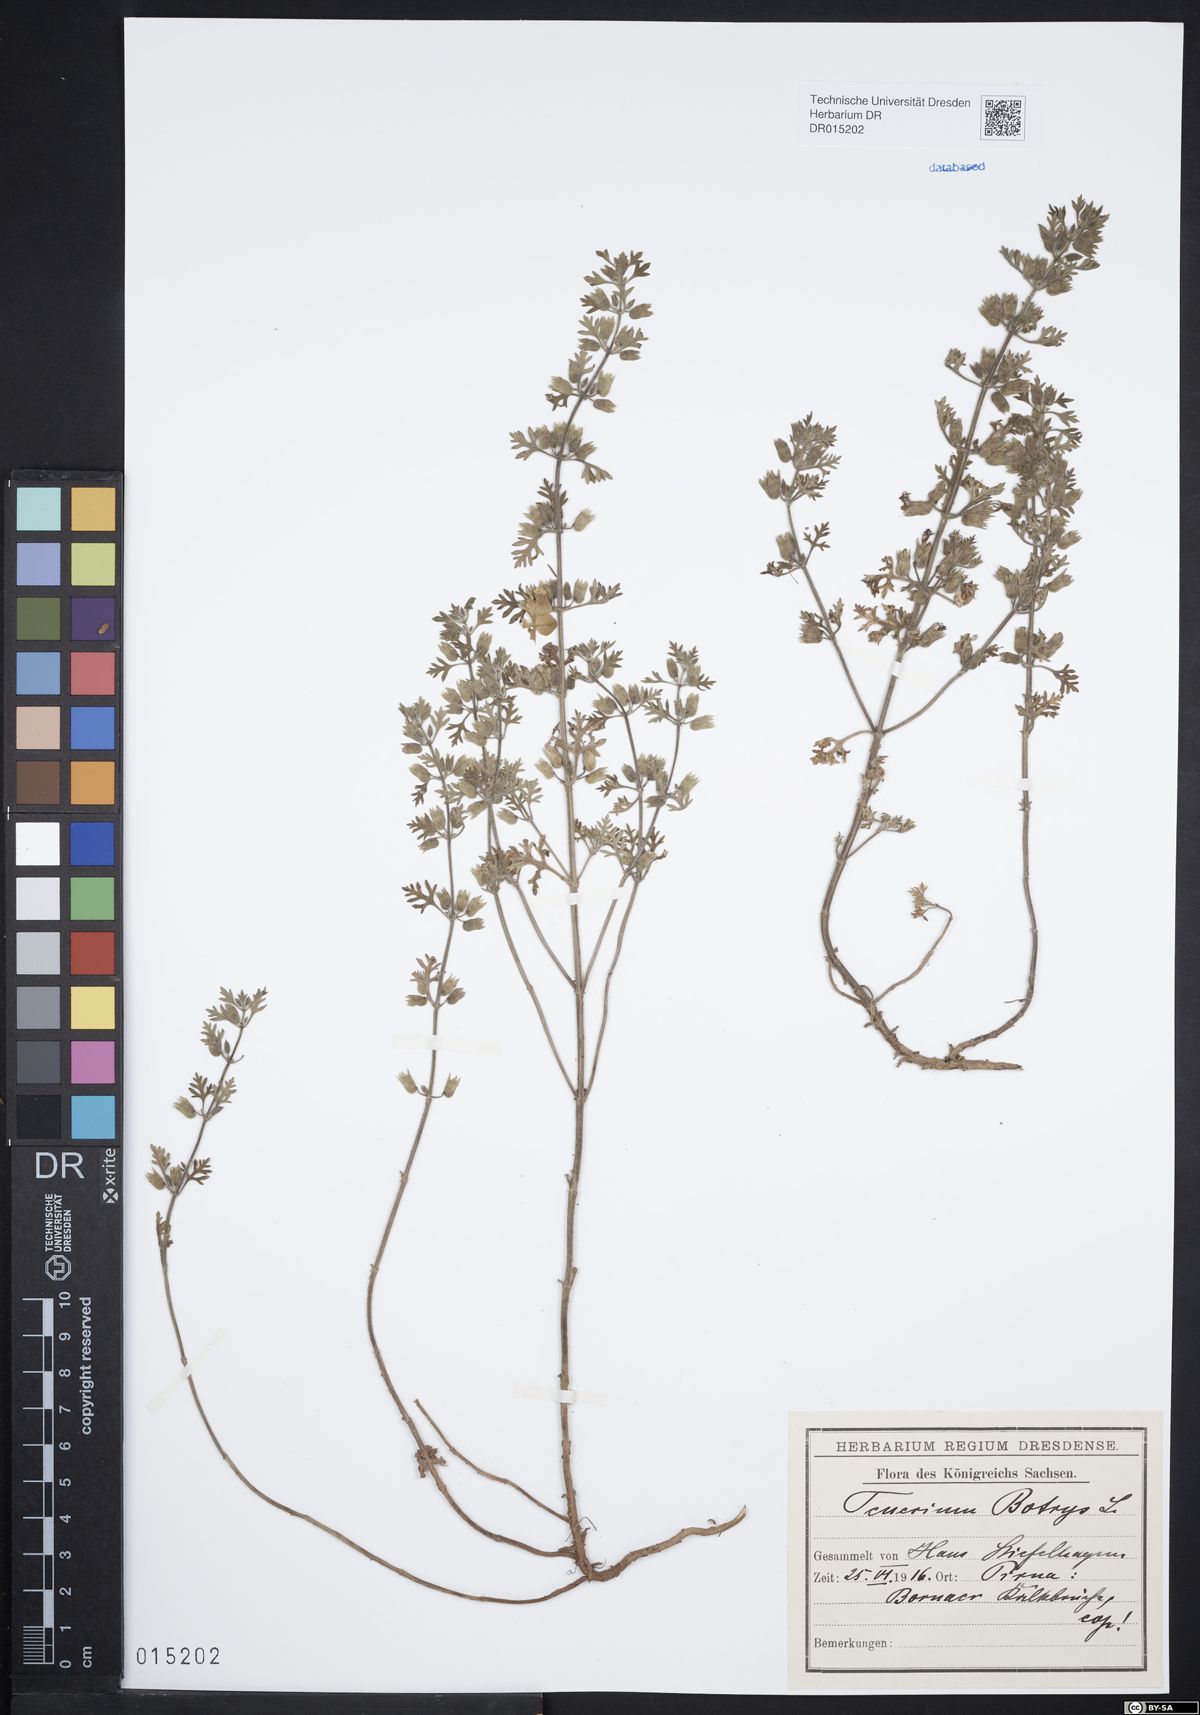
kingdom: Plantae
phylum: Tracheophyta
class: Magnoliopsida
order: Lamiales
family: Lamiaceae
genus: Teucrium
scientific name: Teucrium botrys
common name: Cut-leaved germander
